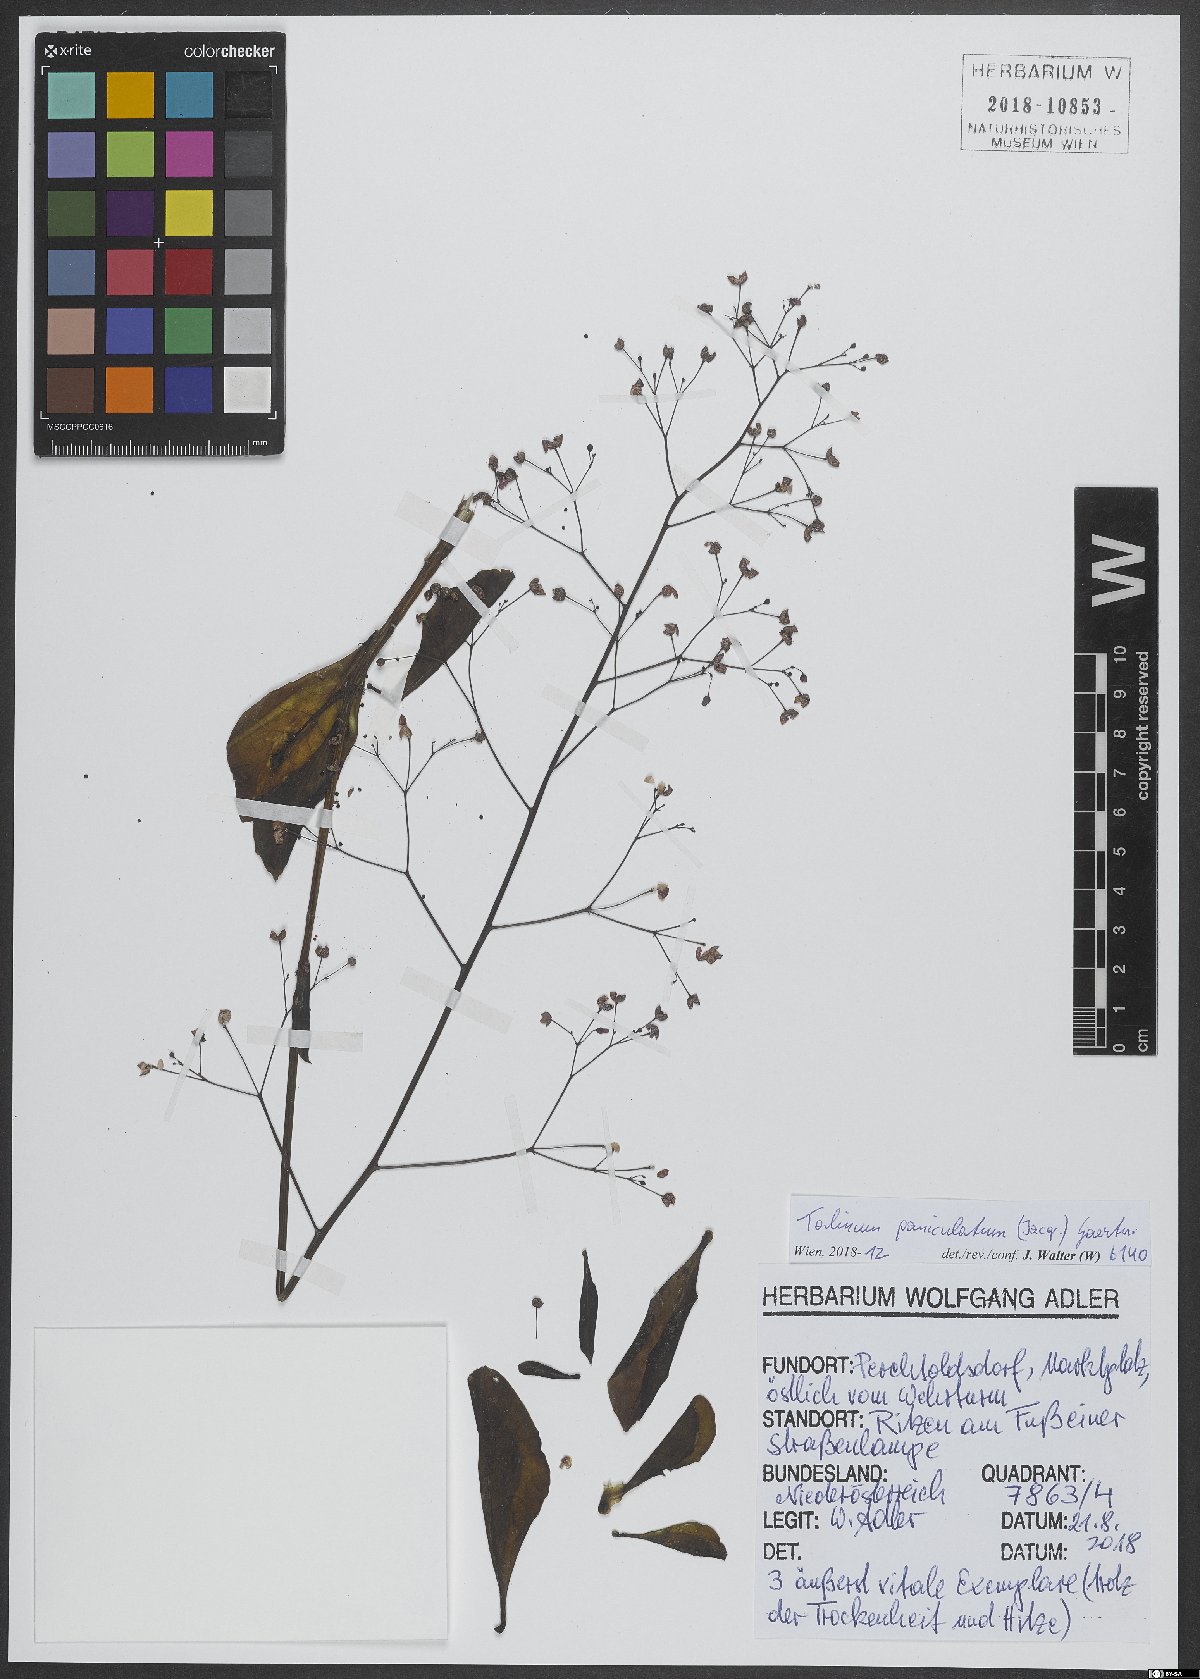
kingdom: Plantae
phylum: Tracheophyta
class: Magnoliopsida
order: Caryophyllales
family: Talinaceae
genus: Talinum
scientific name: Talinum paniculatum
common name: Jewels of opar
